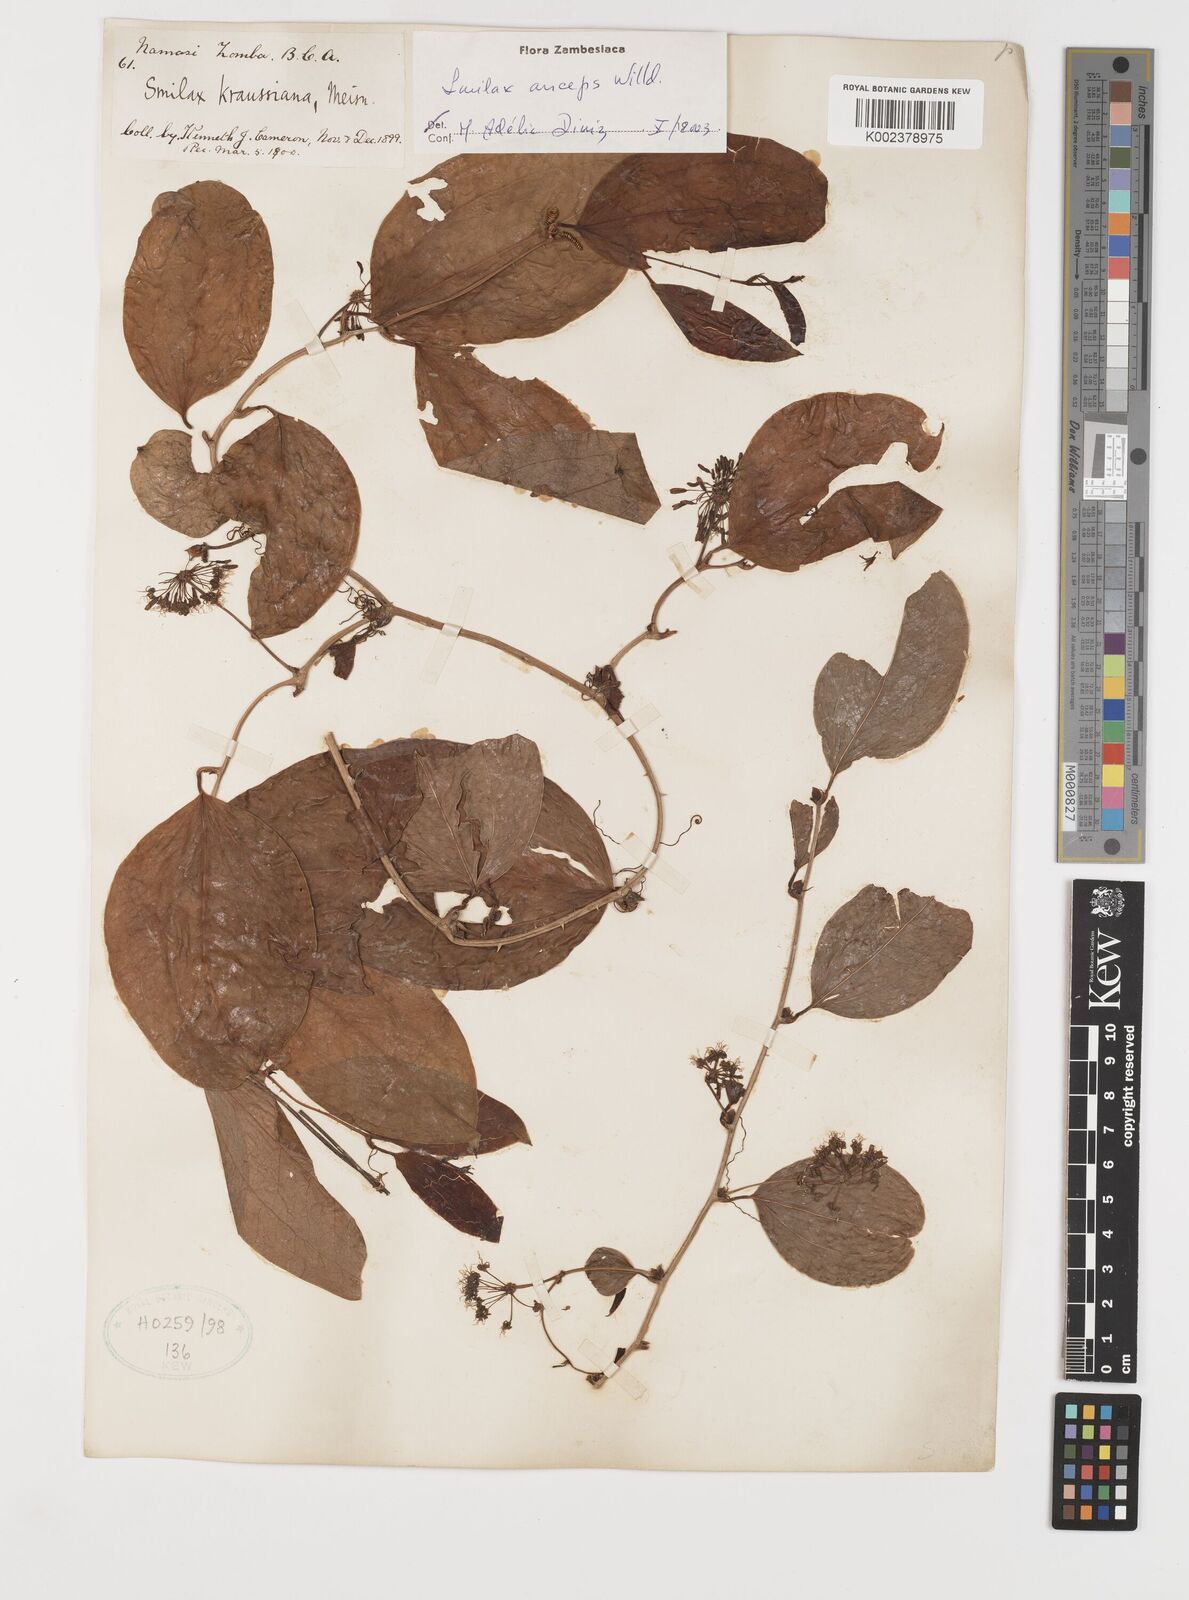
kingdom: Plantae
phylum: Tracheophyta
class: Liliopsida
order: Liliales
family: Smilacaceae
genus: Smilax
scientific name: Smilax anceps
